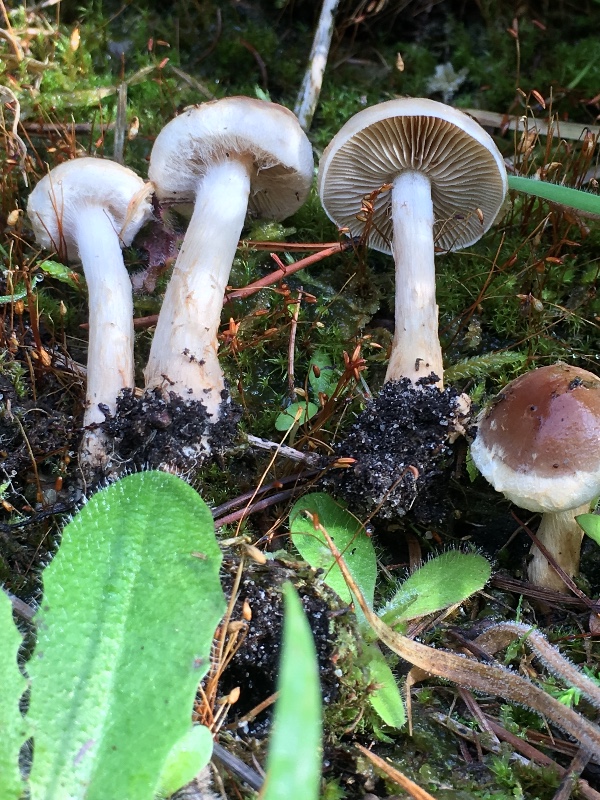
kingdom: Fungi
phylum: Basidiomycota
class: Agaricomycetes
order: Agaricales
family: Hymenogastraceae
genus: Hebeloma
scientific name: Hebeloma mesophaeum
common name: lerbrun tåreblad
